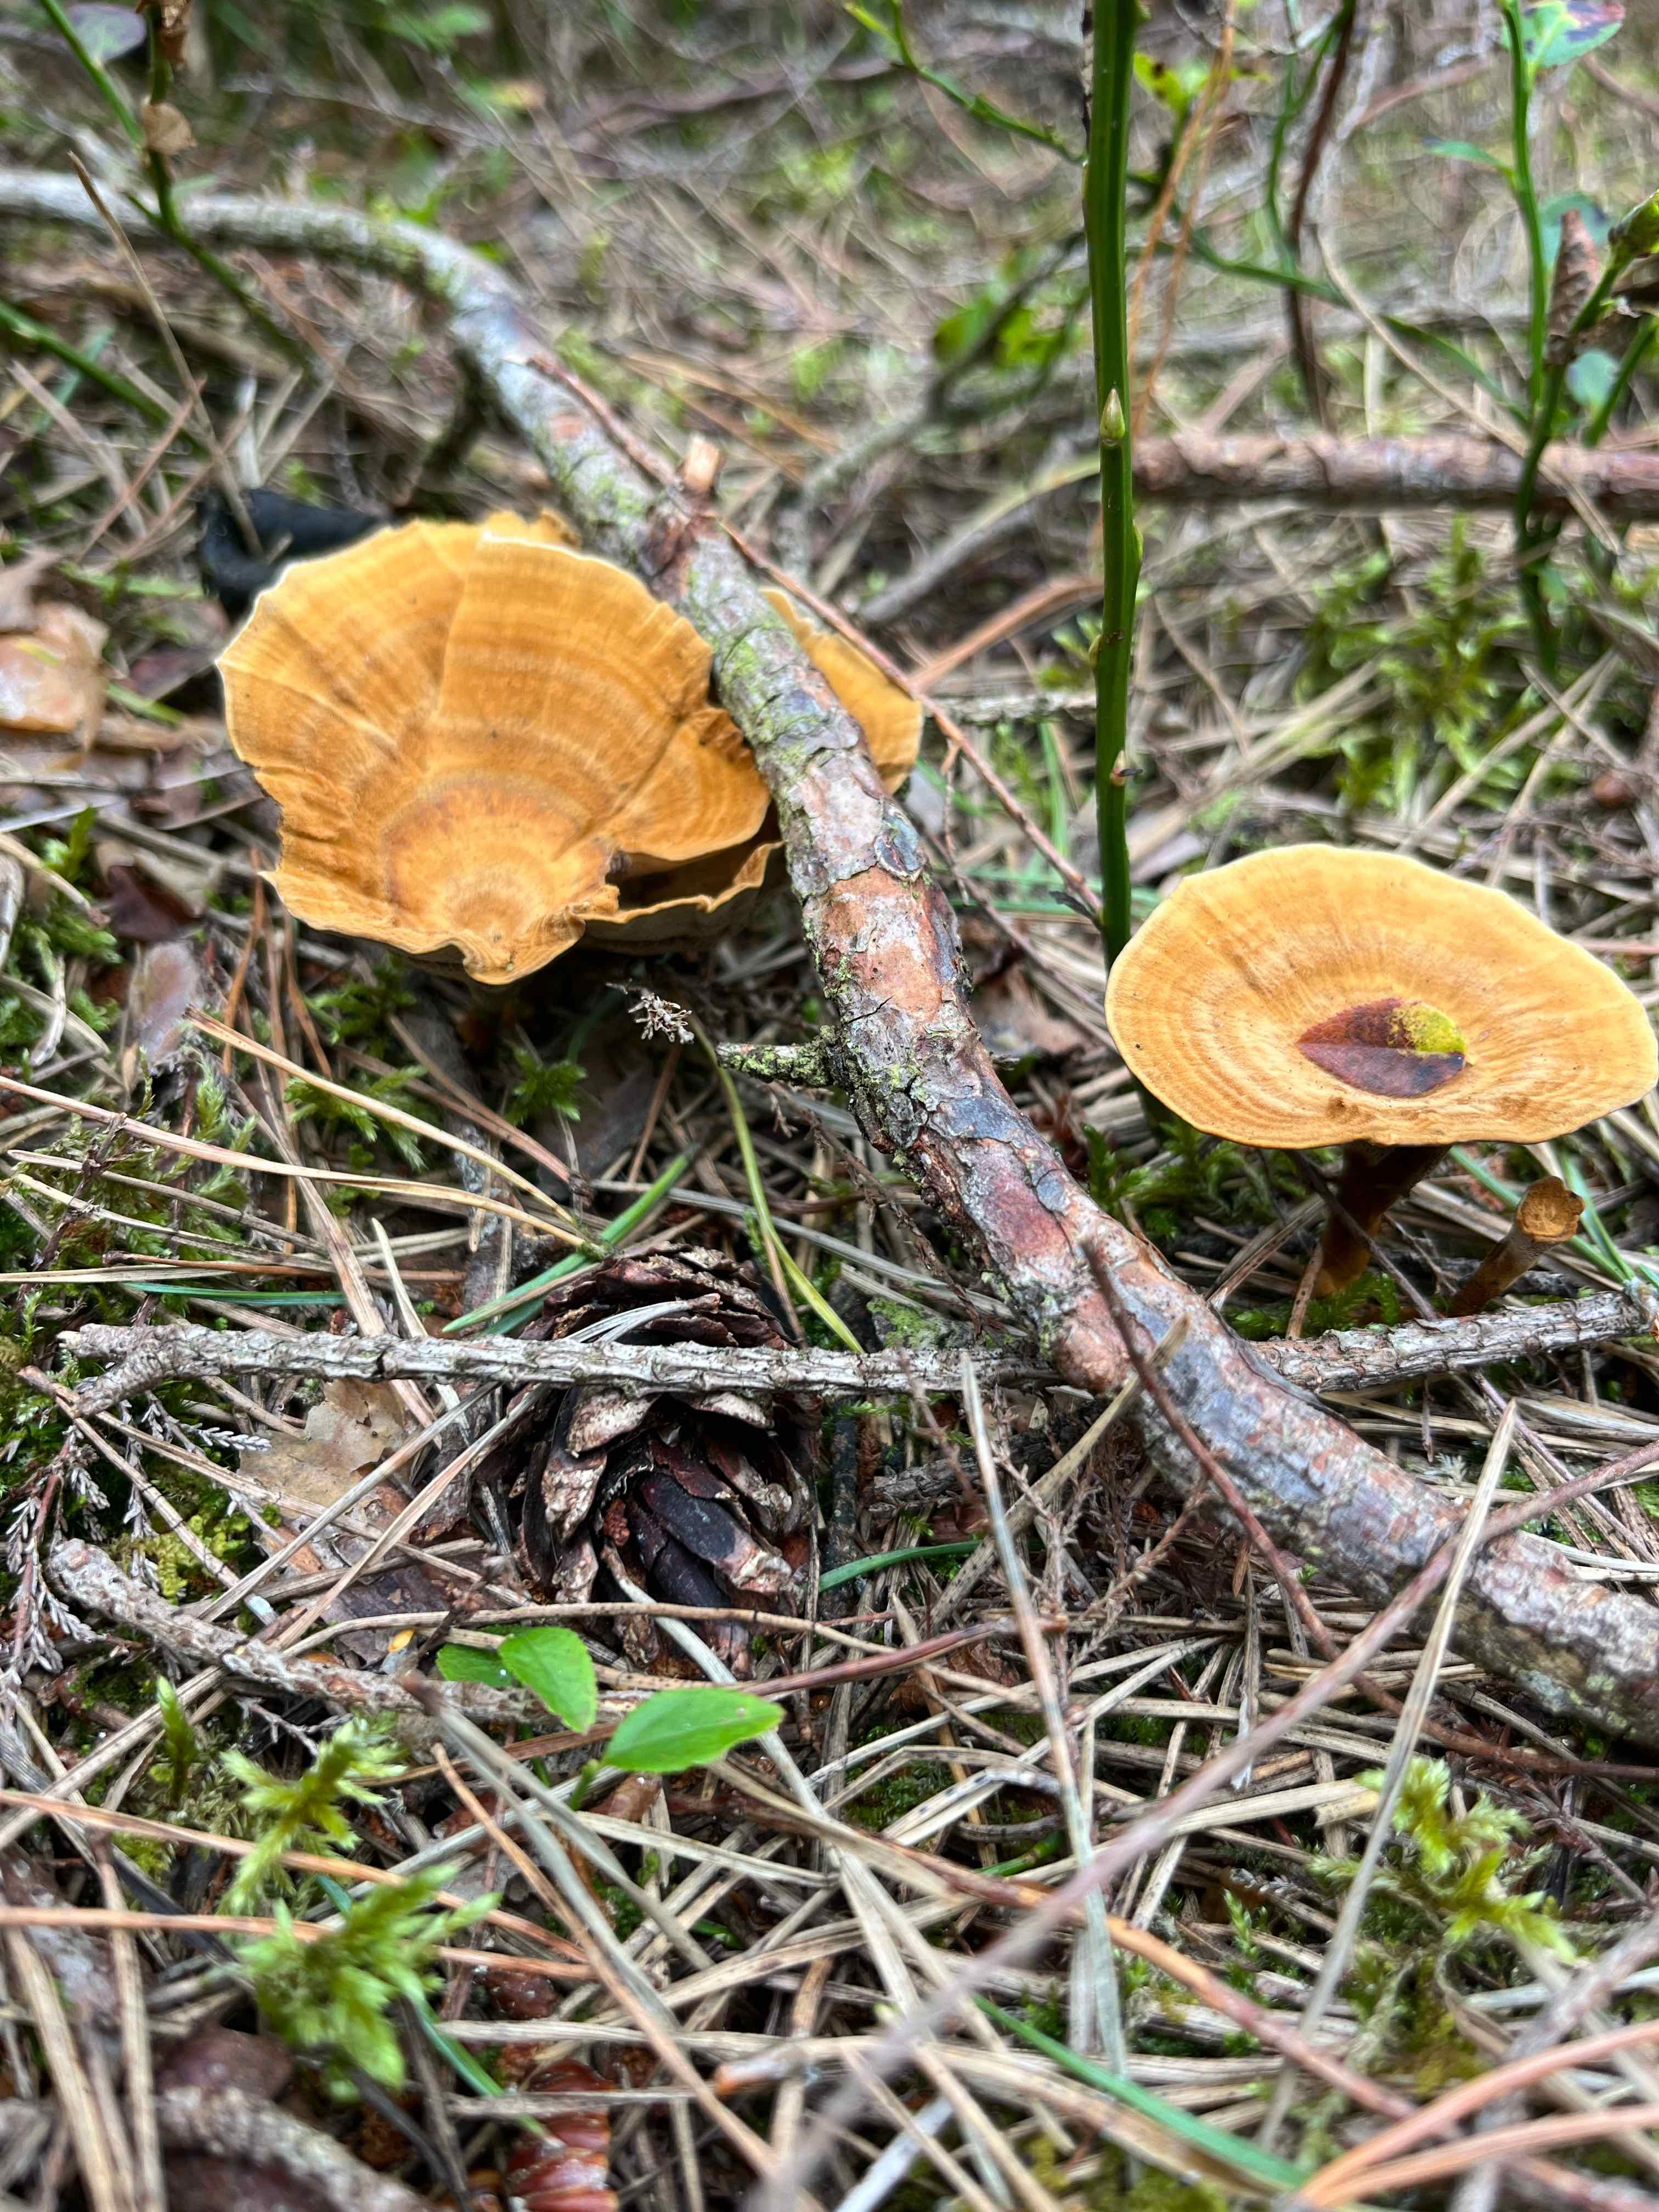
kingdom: Fungi
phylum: Basidiomycota
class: Agaricomycetes
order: Hymenochaetales
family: Hymenochaetaceae
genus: Coltricia
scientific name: Coltricia perennis
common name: almindelig sandporesvamp
